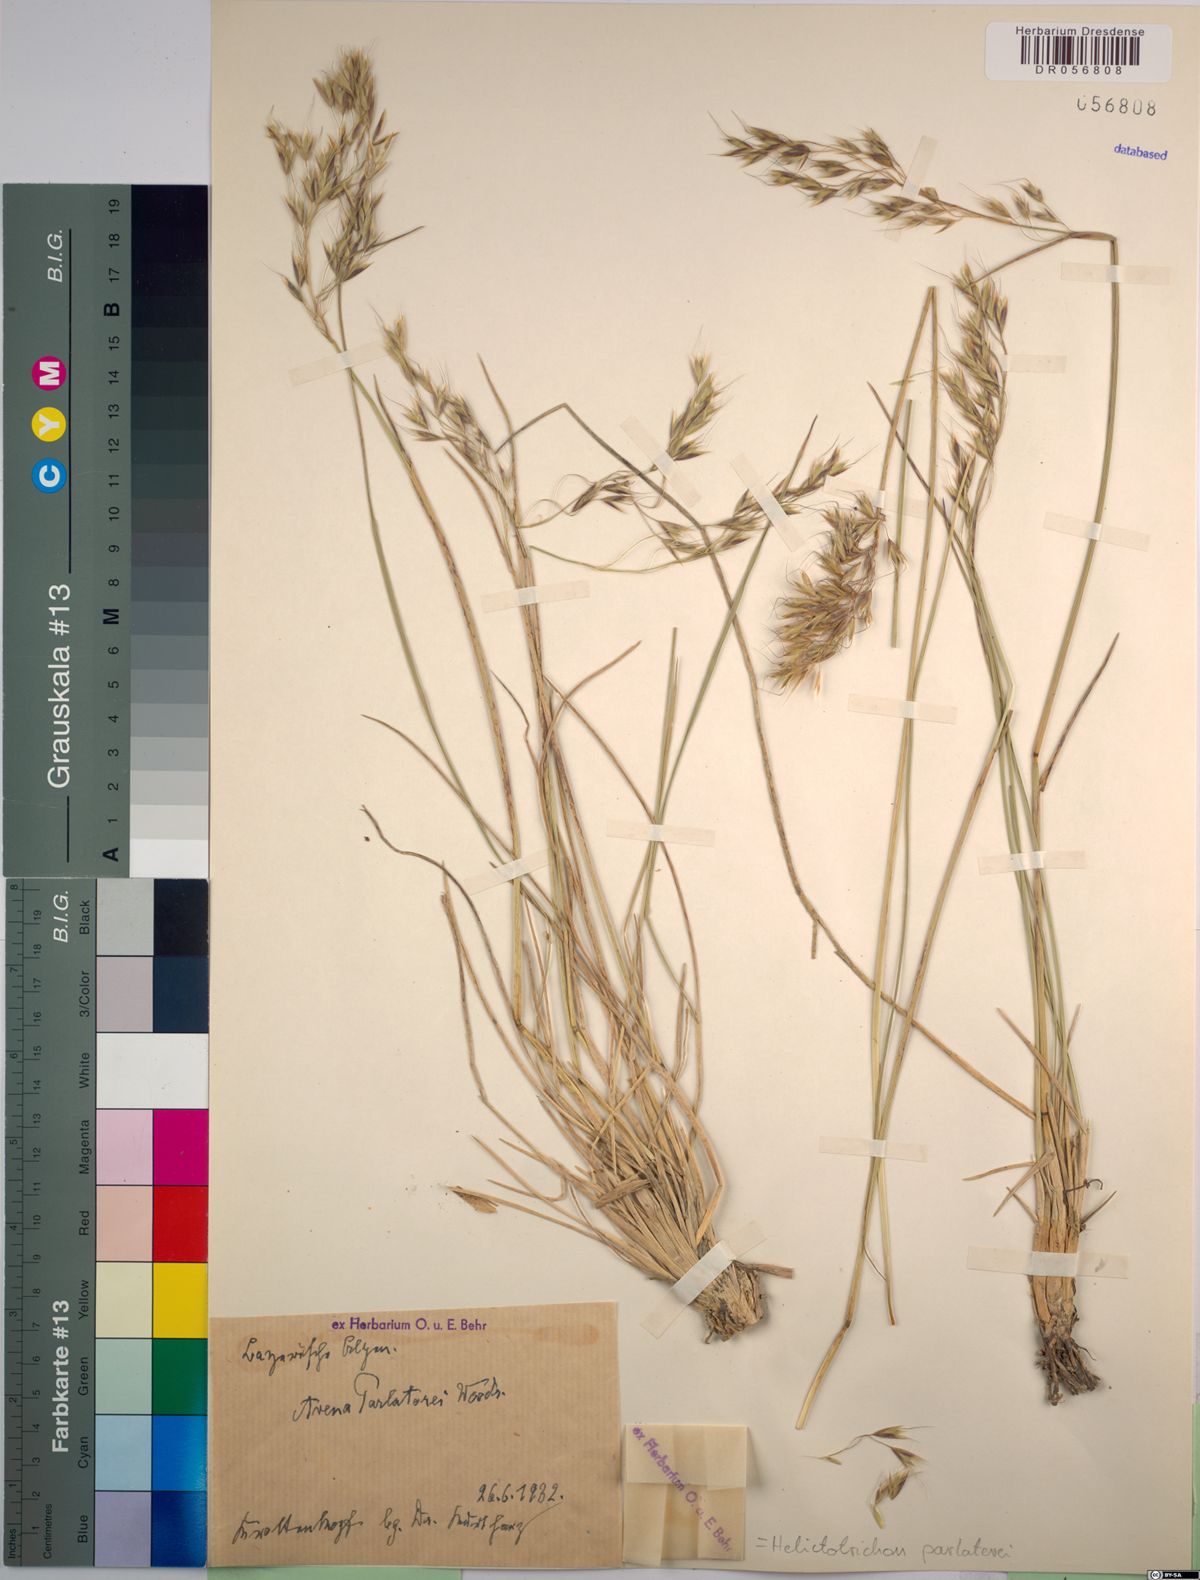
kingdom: Plantae
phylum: Tracheophyta
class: Liliopsida
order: Poales
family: Poaceae
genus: Helictotrichon
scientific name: Helictotrichon parlatorei
